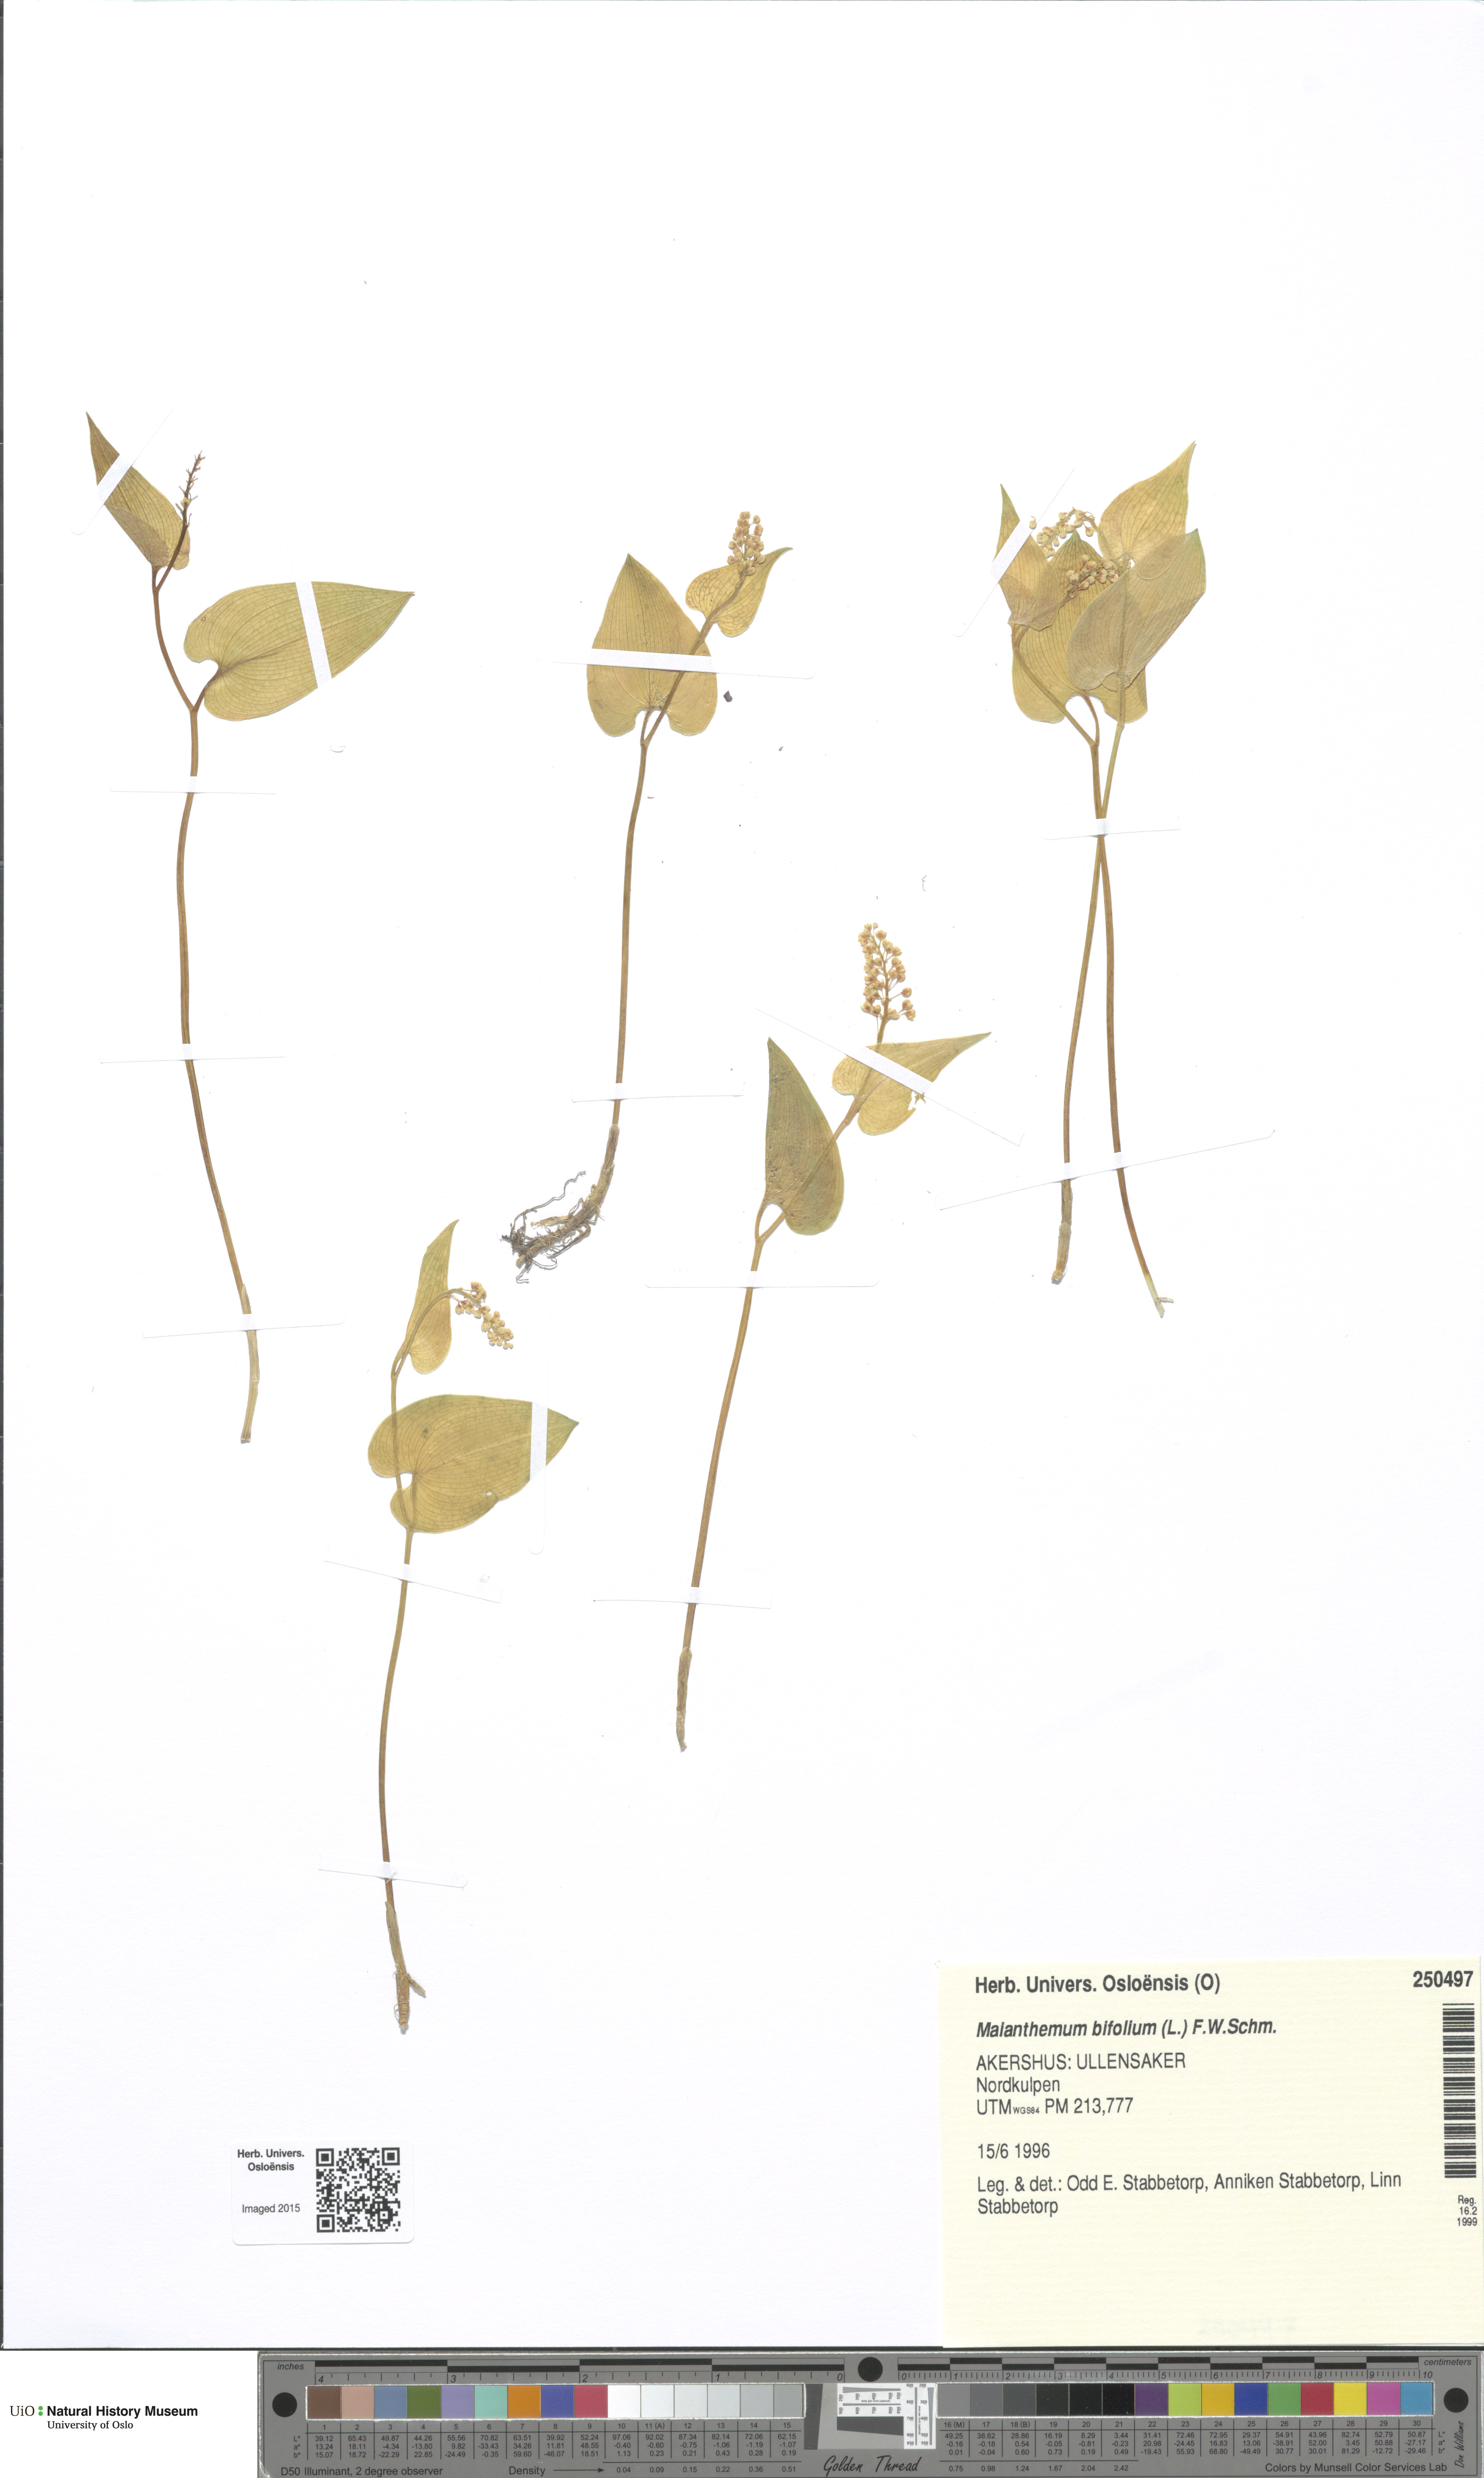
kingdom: Plantae
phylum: Tracheophyta
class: Liliopsida
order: Asparagales
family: Asparagaceae
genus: Maianthemum
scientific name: Maianthemum bifolium
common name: May lily
